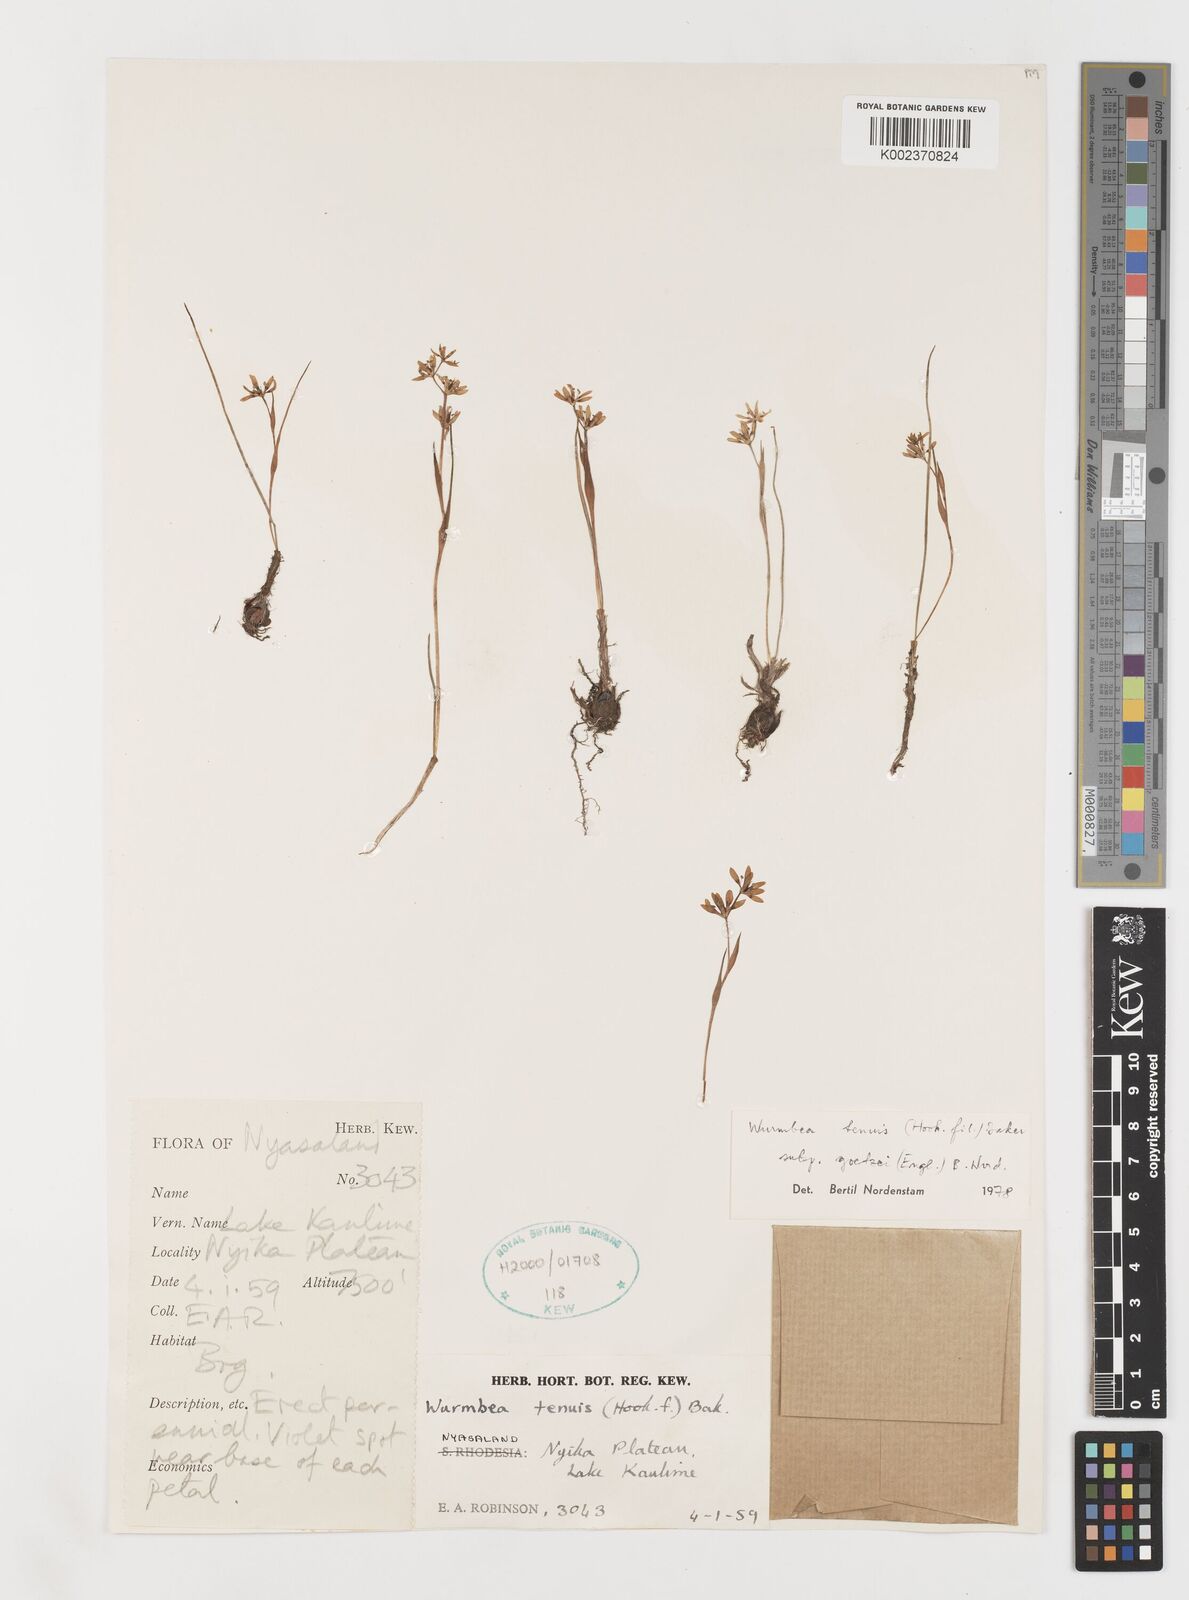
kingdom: Plantae
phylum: Tracheophyta
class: Liliopsida
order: Liliales
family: Colchicaceae
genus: Wurmbea
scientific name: Wurmbea tenuis
